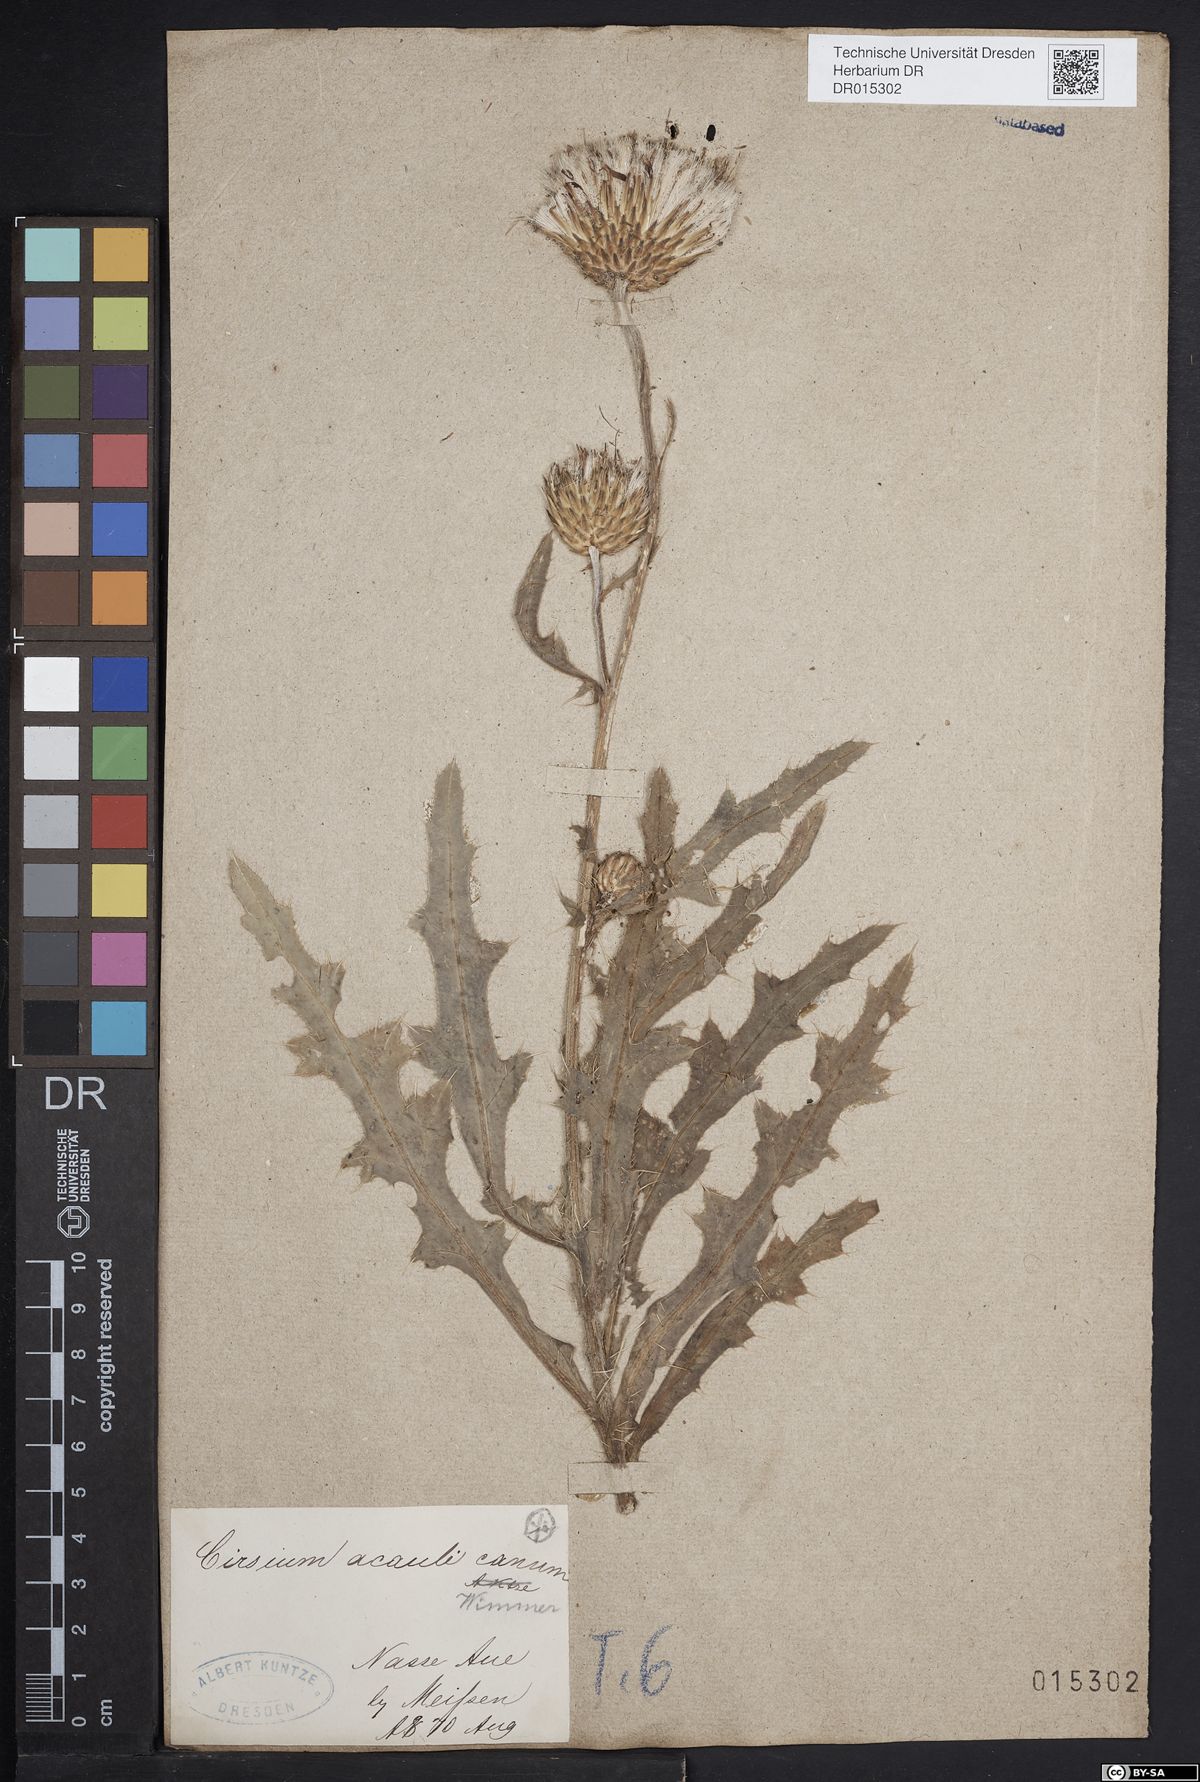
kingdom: Plantae
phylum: Tracheophyta
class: Magnoliopsida
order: Asterales
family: Asteraceae
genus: Cirsium
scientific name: Cirsium winklerianum
